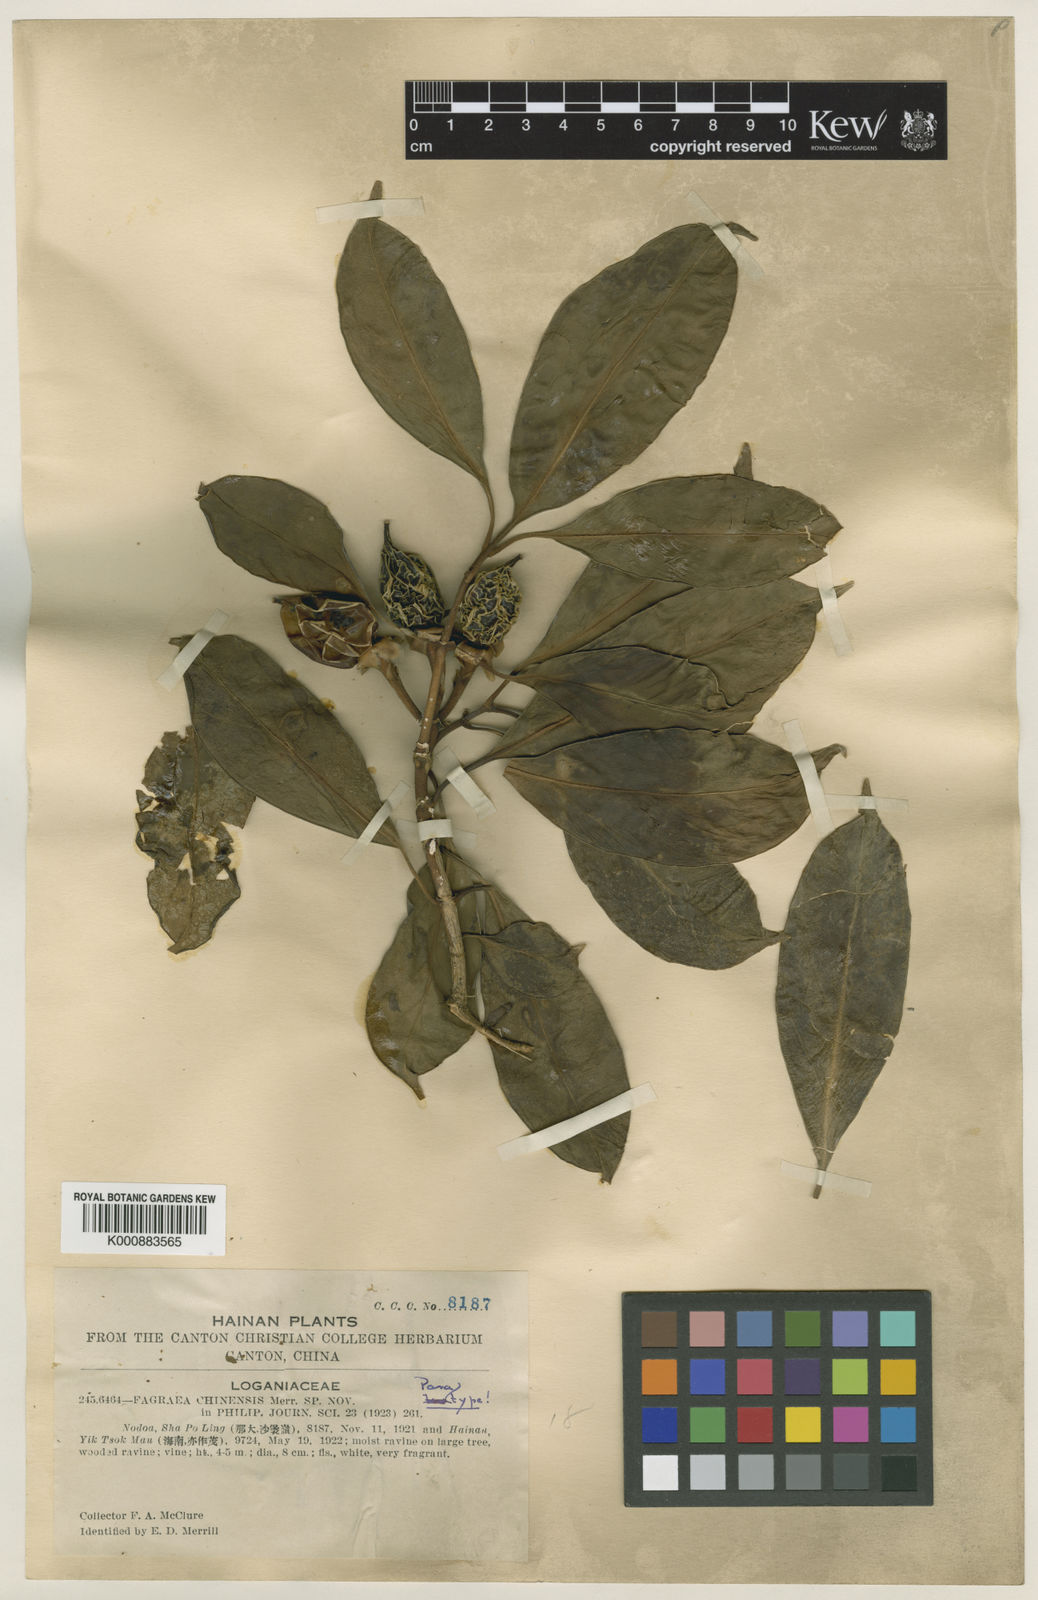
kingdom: Plantae
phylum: Tracheophyta
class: Magnoliopsida
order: Gentianales
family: Gentianaceae
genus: Fagraea
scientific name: Fagraea ceilanica
